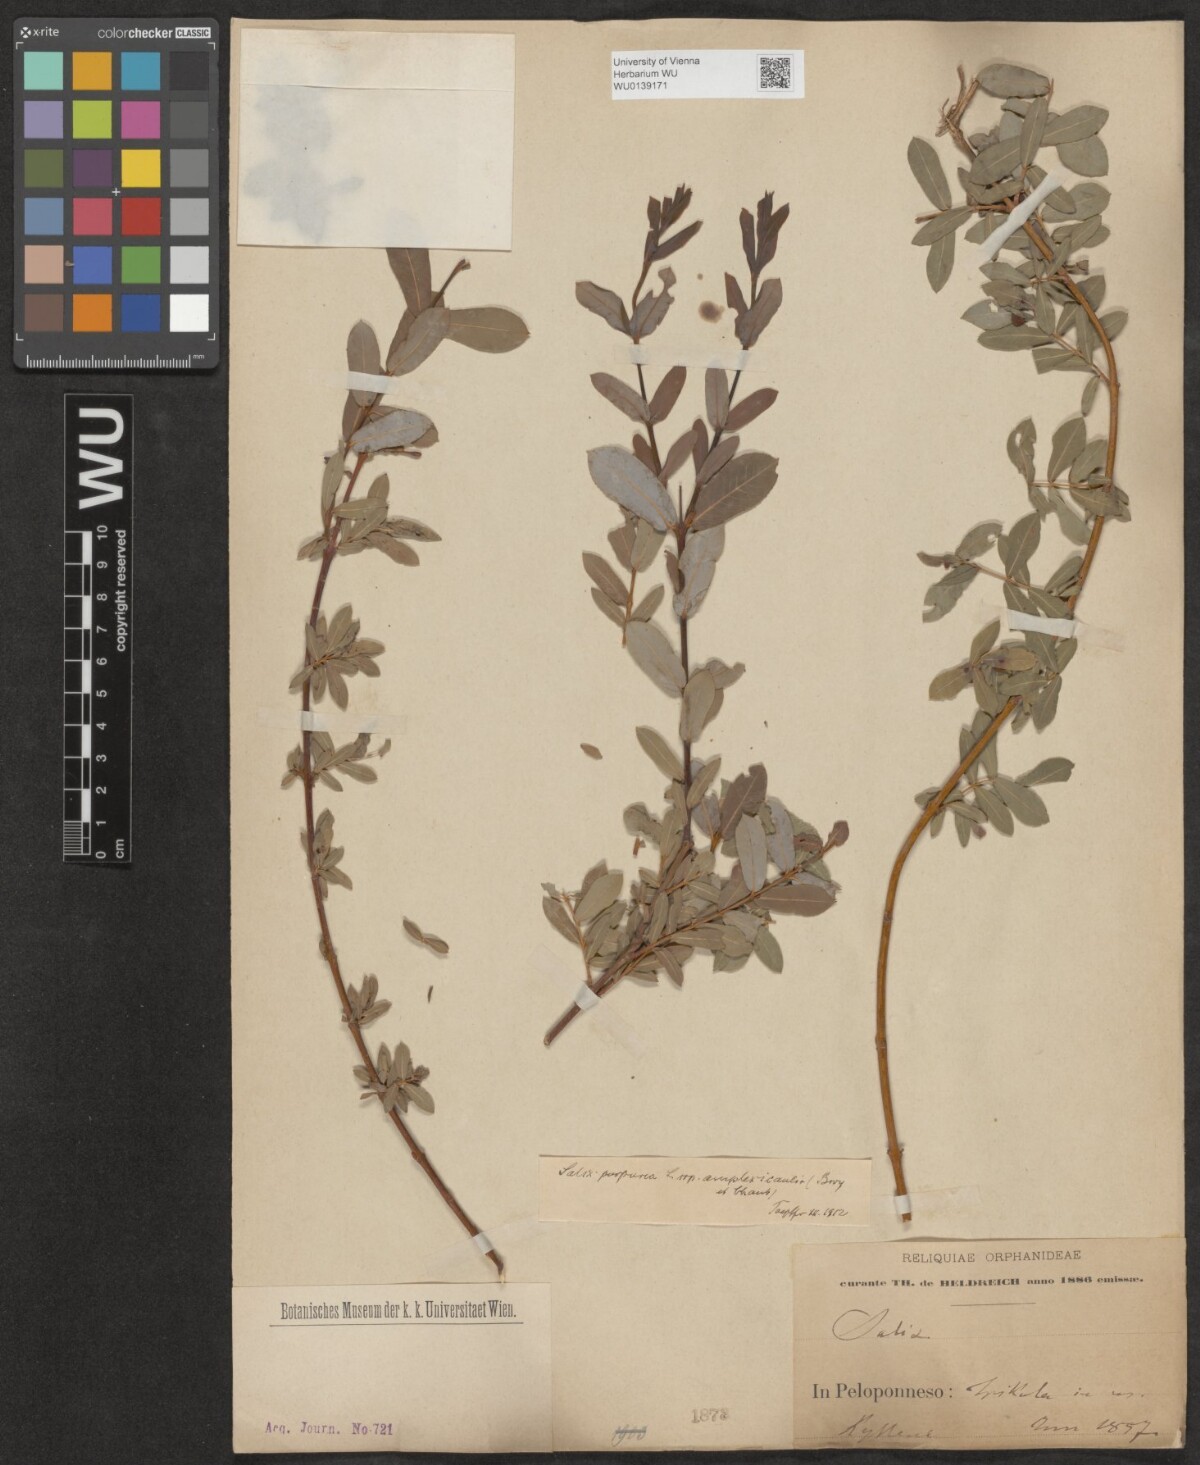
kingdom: Plantae
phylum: Tracheophyta
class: Magnoliopsida
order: Malpighiales
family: Salicaceae
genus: Salix
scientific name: Salix purpurea
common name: Purple willow
